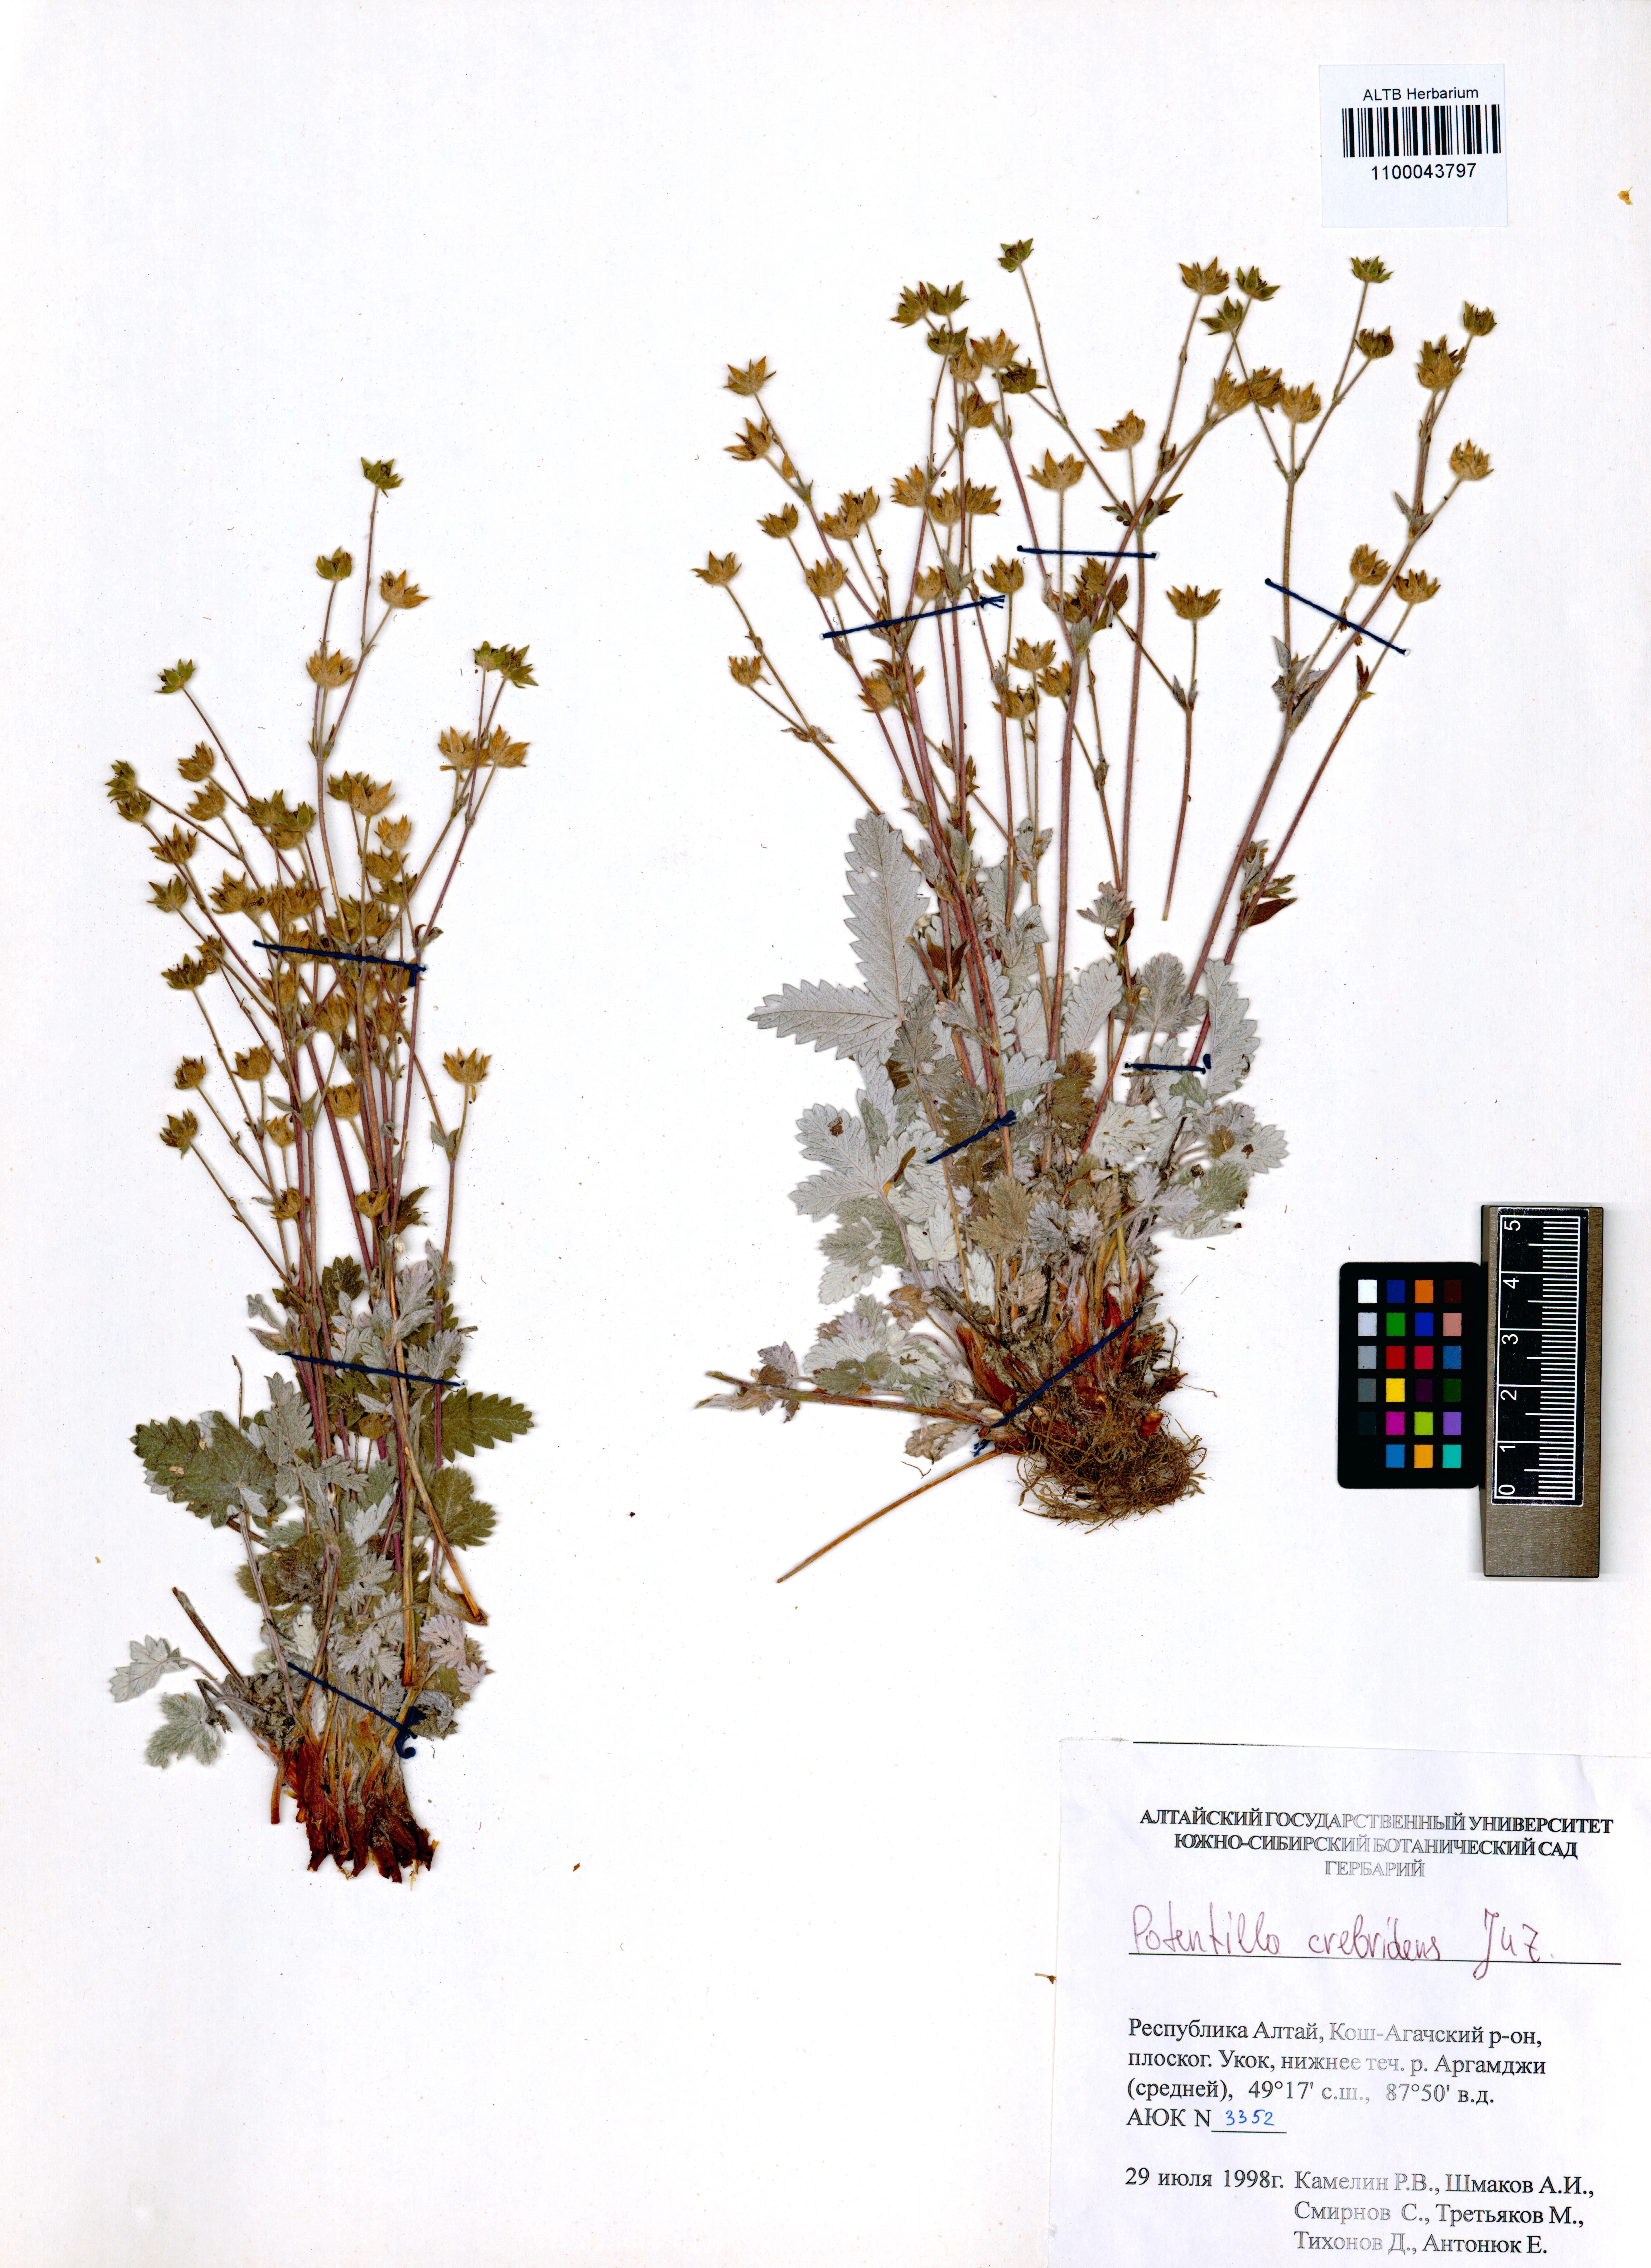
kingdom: Plantae
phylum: Tracheophyta
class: Magnoliopsida
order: Rosales
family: Rosaceae
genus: Potentilla
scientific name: Potentilla crebridens
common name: Congested cinquefoil
